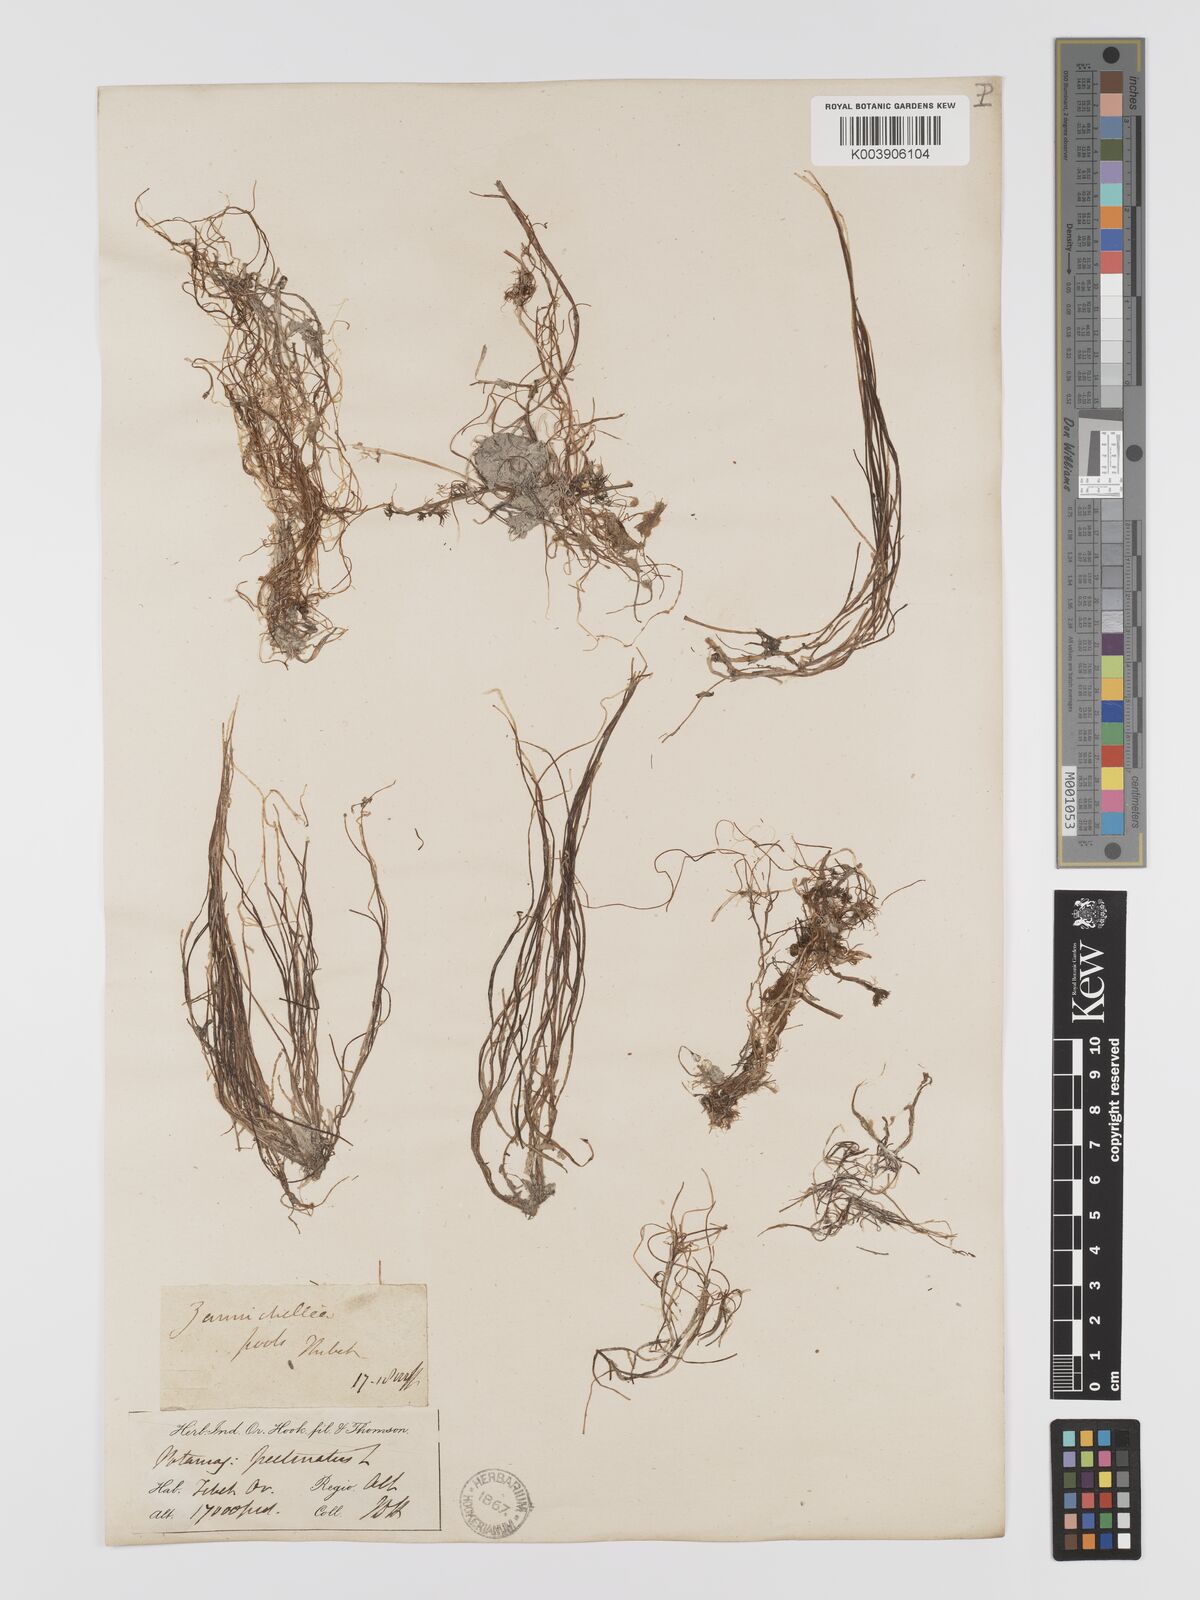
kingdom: Plantae
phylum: Tracheophyta
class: Liliopsida
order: Alismatales
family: Potamogetonaceae
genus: Stuckenia
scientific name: Stuckenia pectinata
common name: Sago pondweed
